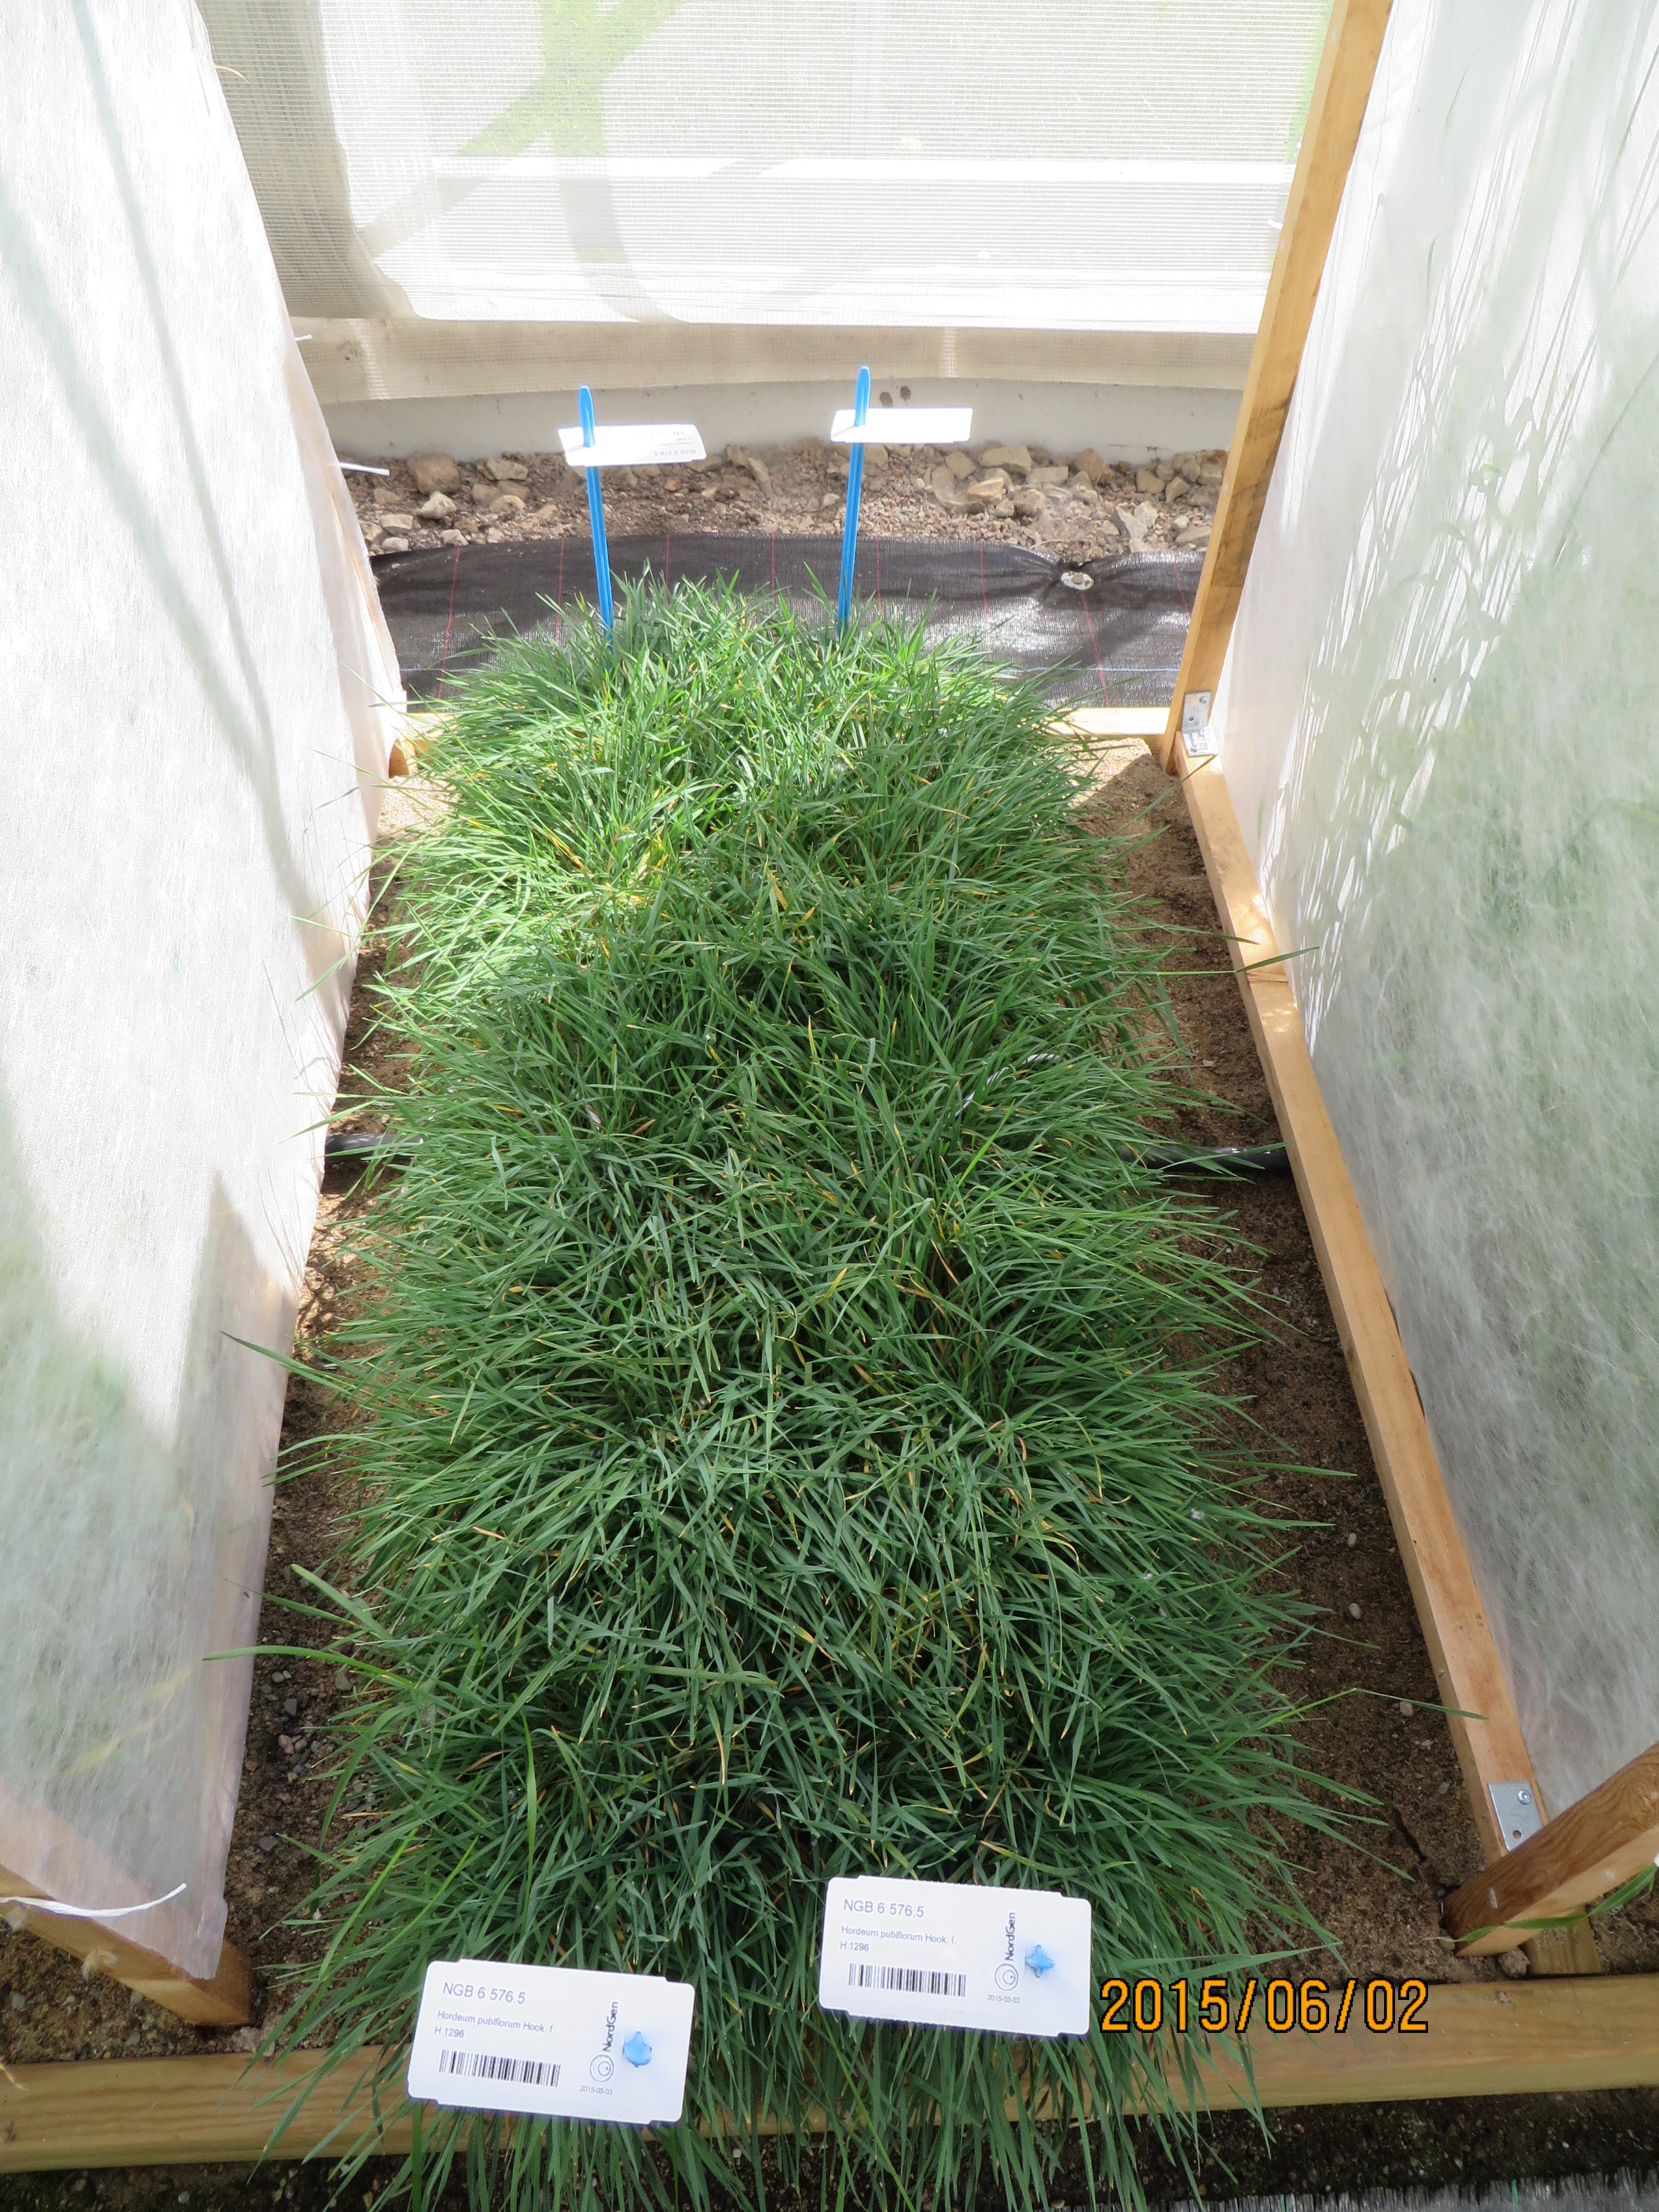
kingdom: Plantae
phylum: Tracheophyta
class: Liliopsida
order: Poales
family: Poaceae
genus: Hordeum
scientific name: Hordeum pubiflorum
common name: Antarctic barley
